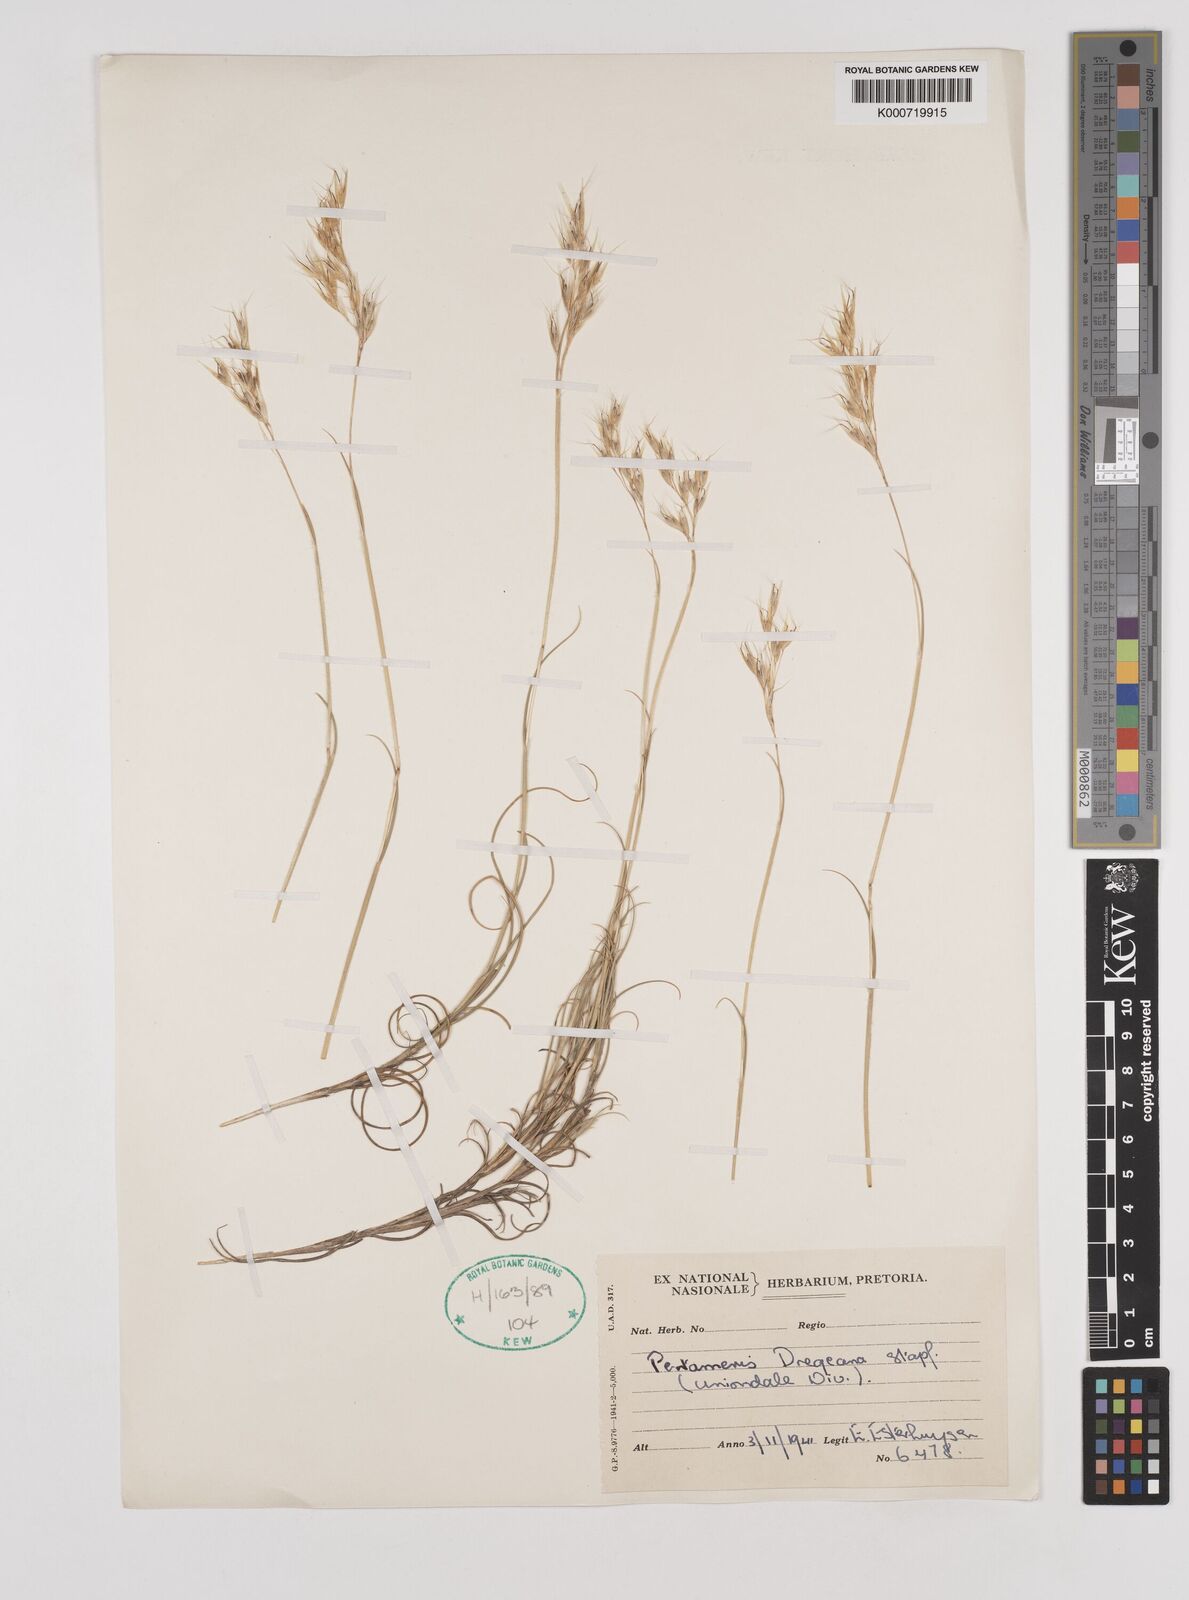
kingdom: Plantae
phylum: Tracheophyta
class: Liliopsida
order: Poales
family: Poaceae
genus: Pentameris
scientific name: Pentameris dregeana
